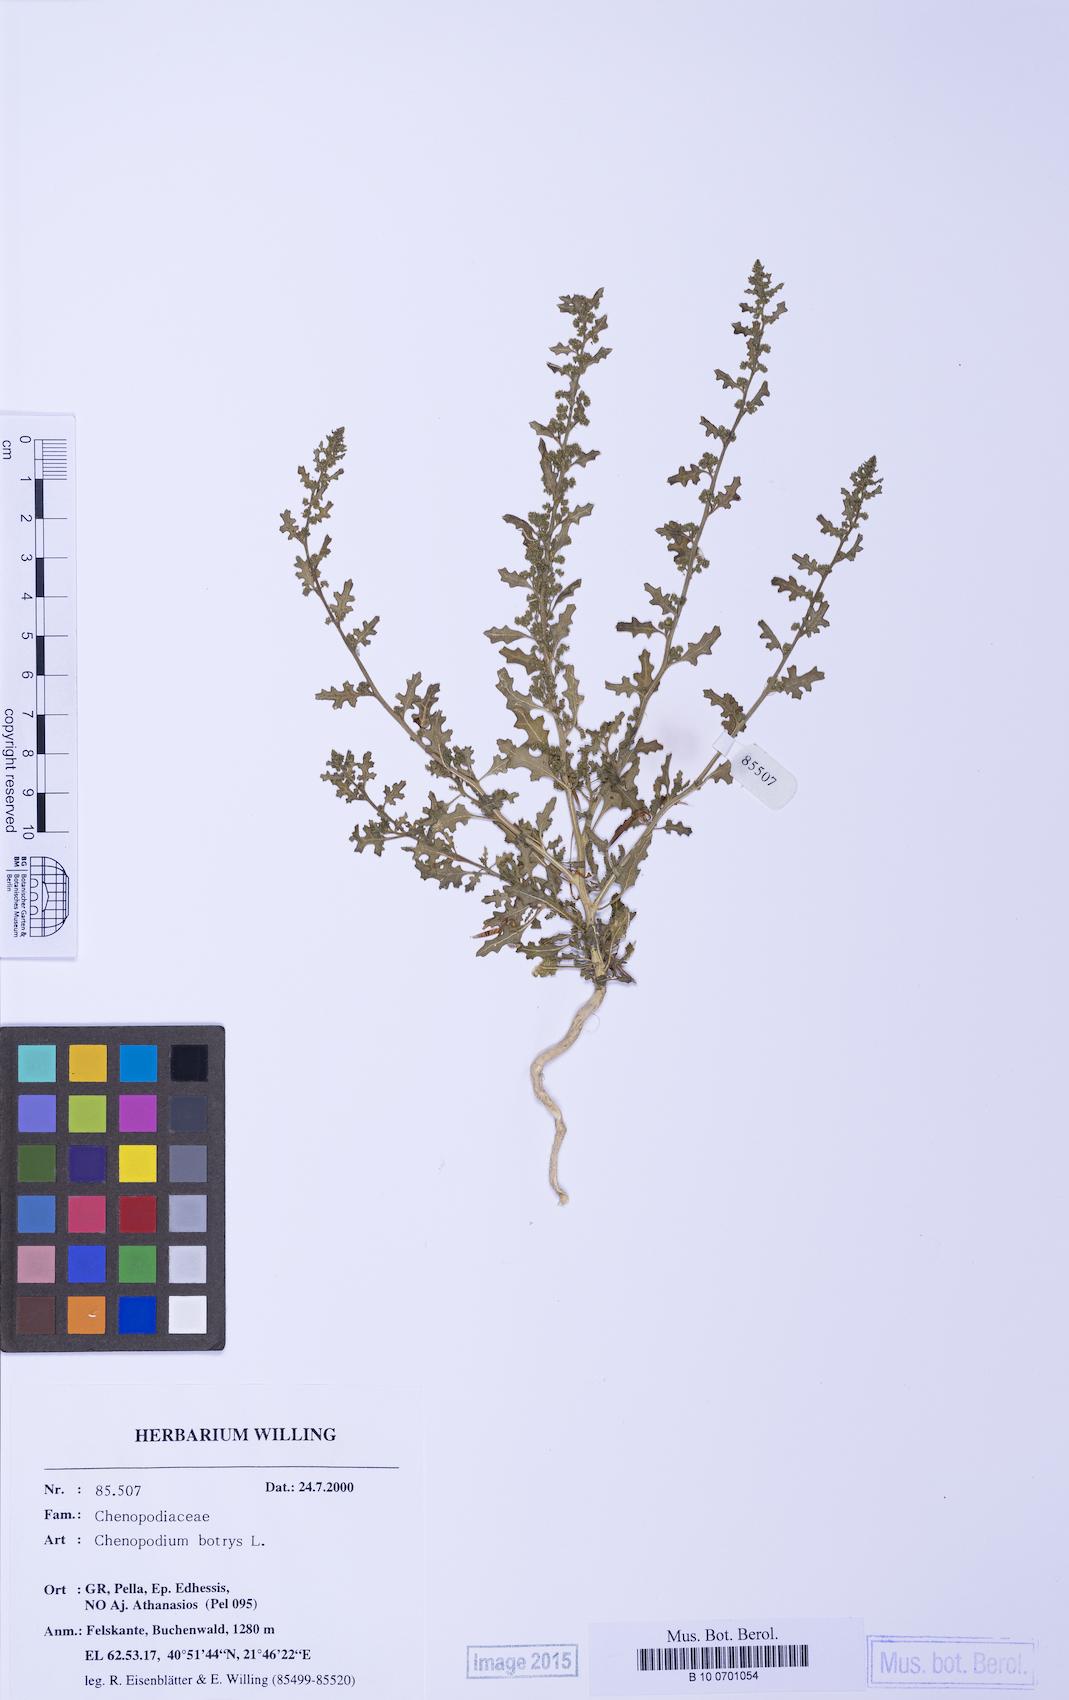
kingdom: Plantae
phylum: Tracheophyta
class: Magnoliopsida
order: Caryophyllales
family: Amaranthaceae
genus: Dysphania
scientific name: Dysphania botrys
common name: Feather-geranium
